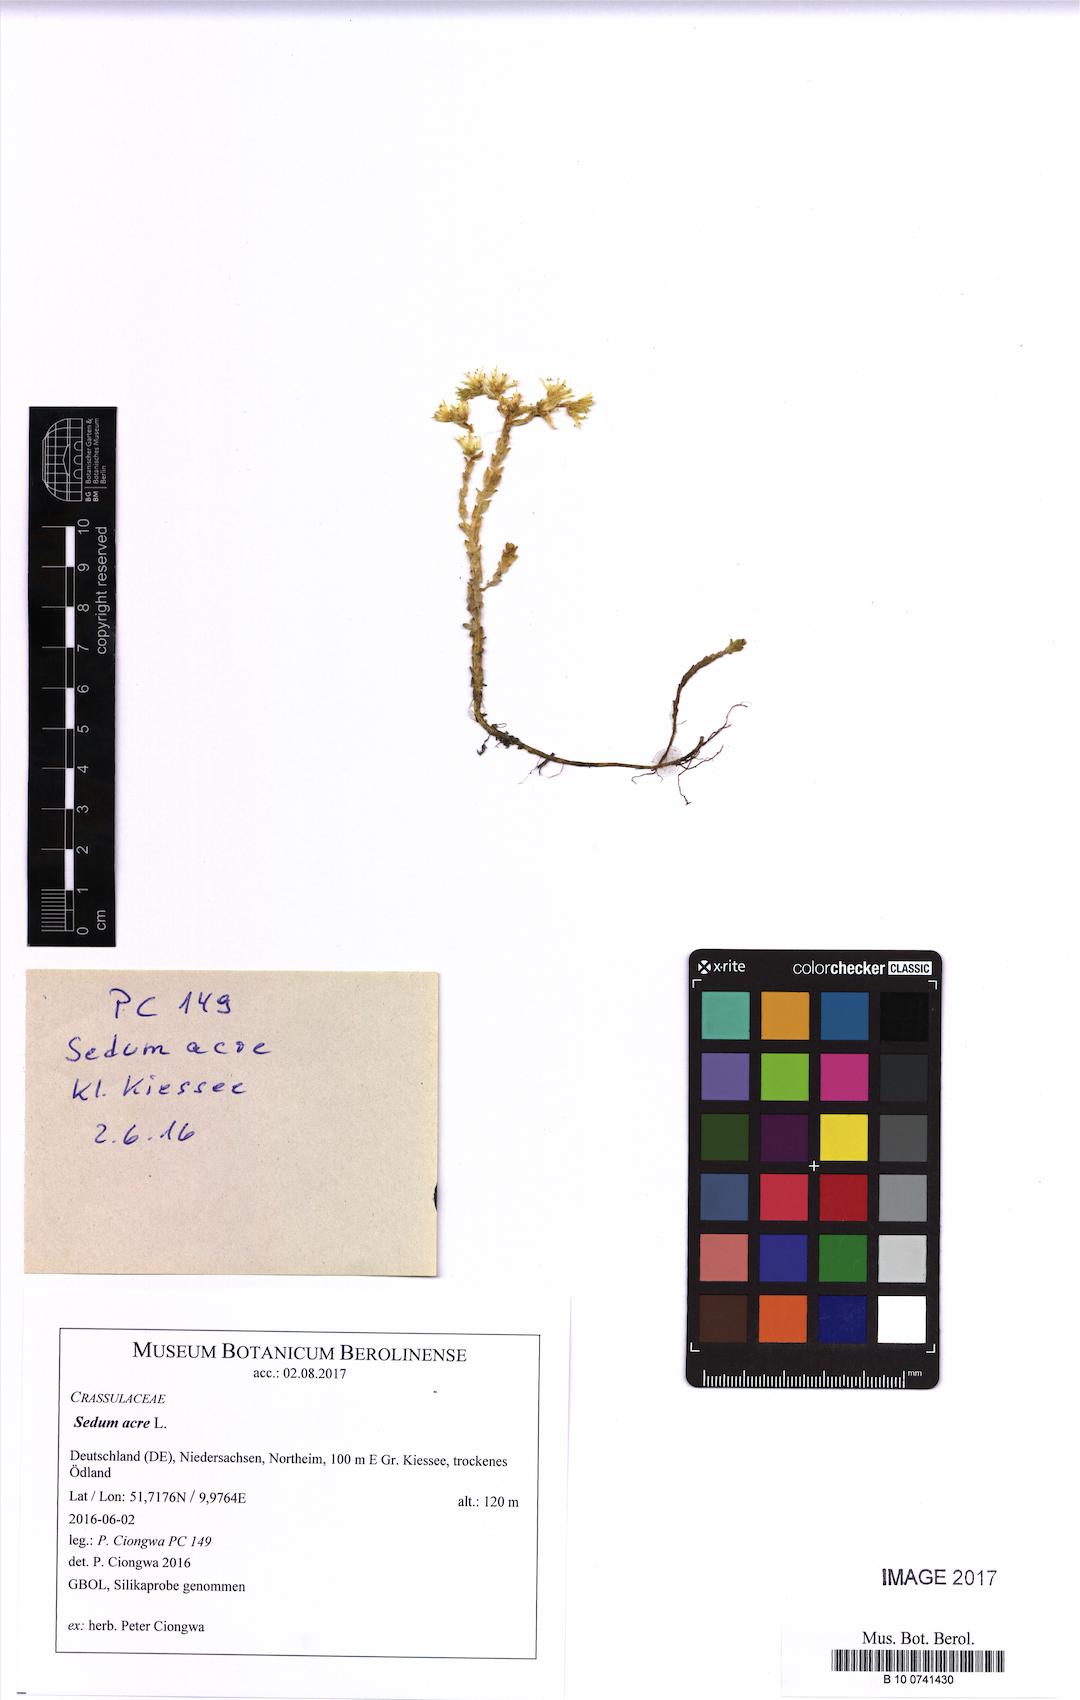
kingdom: Plantae
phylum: Tracheophyta
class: Magnoliopsida
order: Saxifragales
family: Crassulaceae
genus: Sedum
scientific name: Sedum acre
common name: Biting stonecrop
